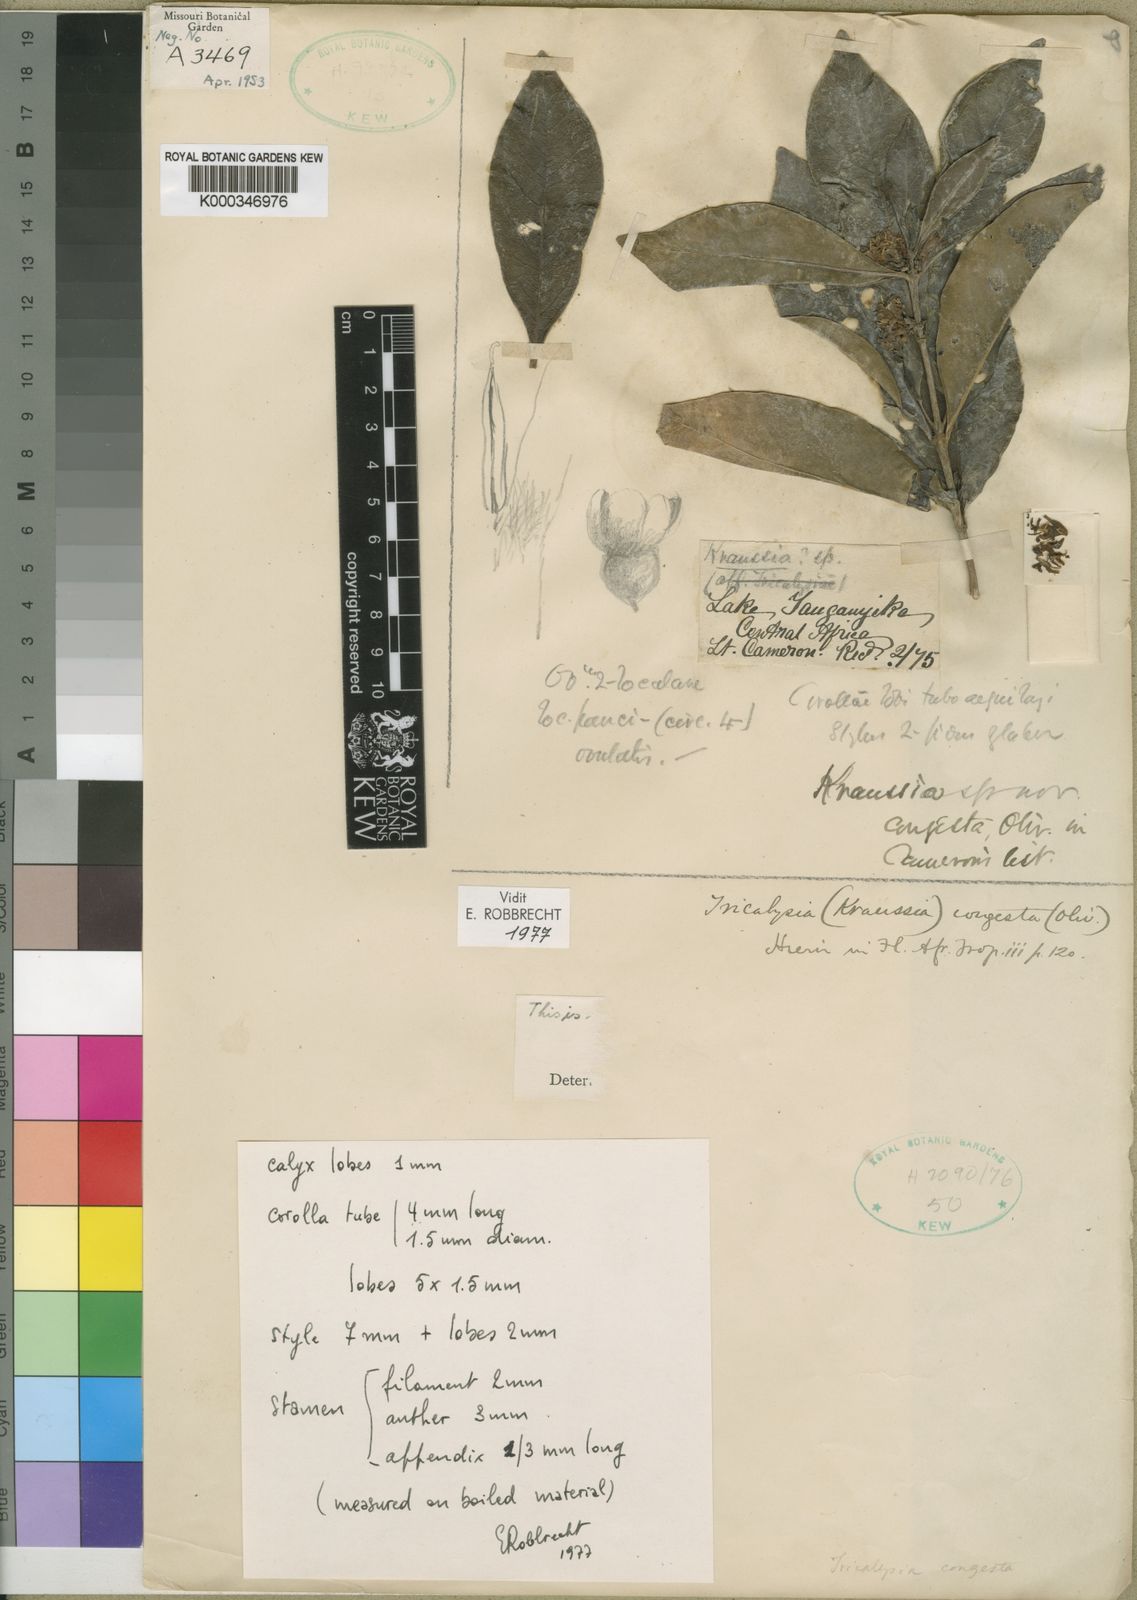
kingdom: Plantae
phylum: Tracheophyta
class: Magnoliopsida
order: Gentianales
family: Rubiaceae
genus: Empogona
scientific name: Empogona congesta
